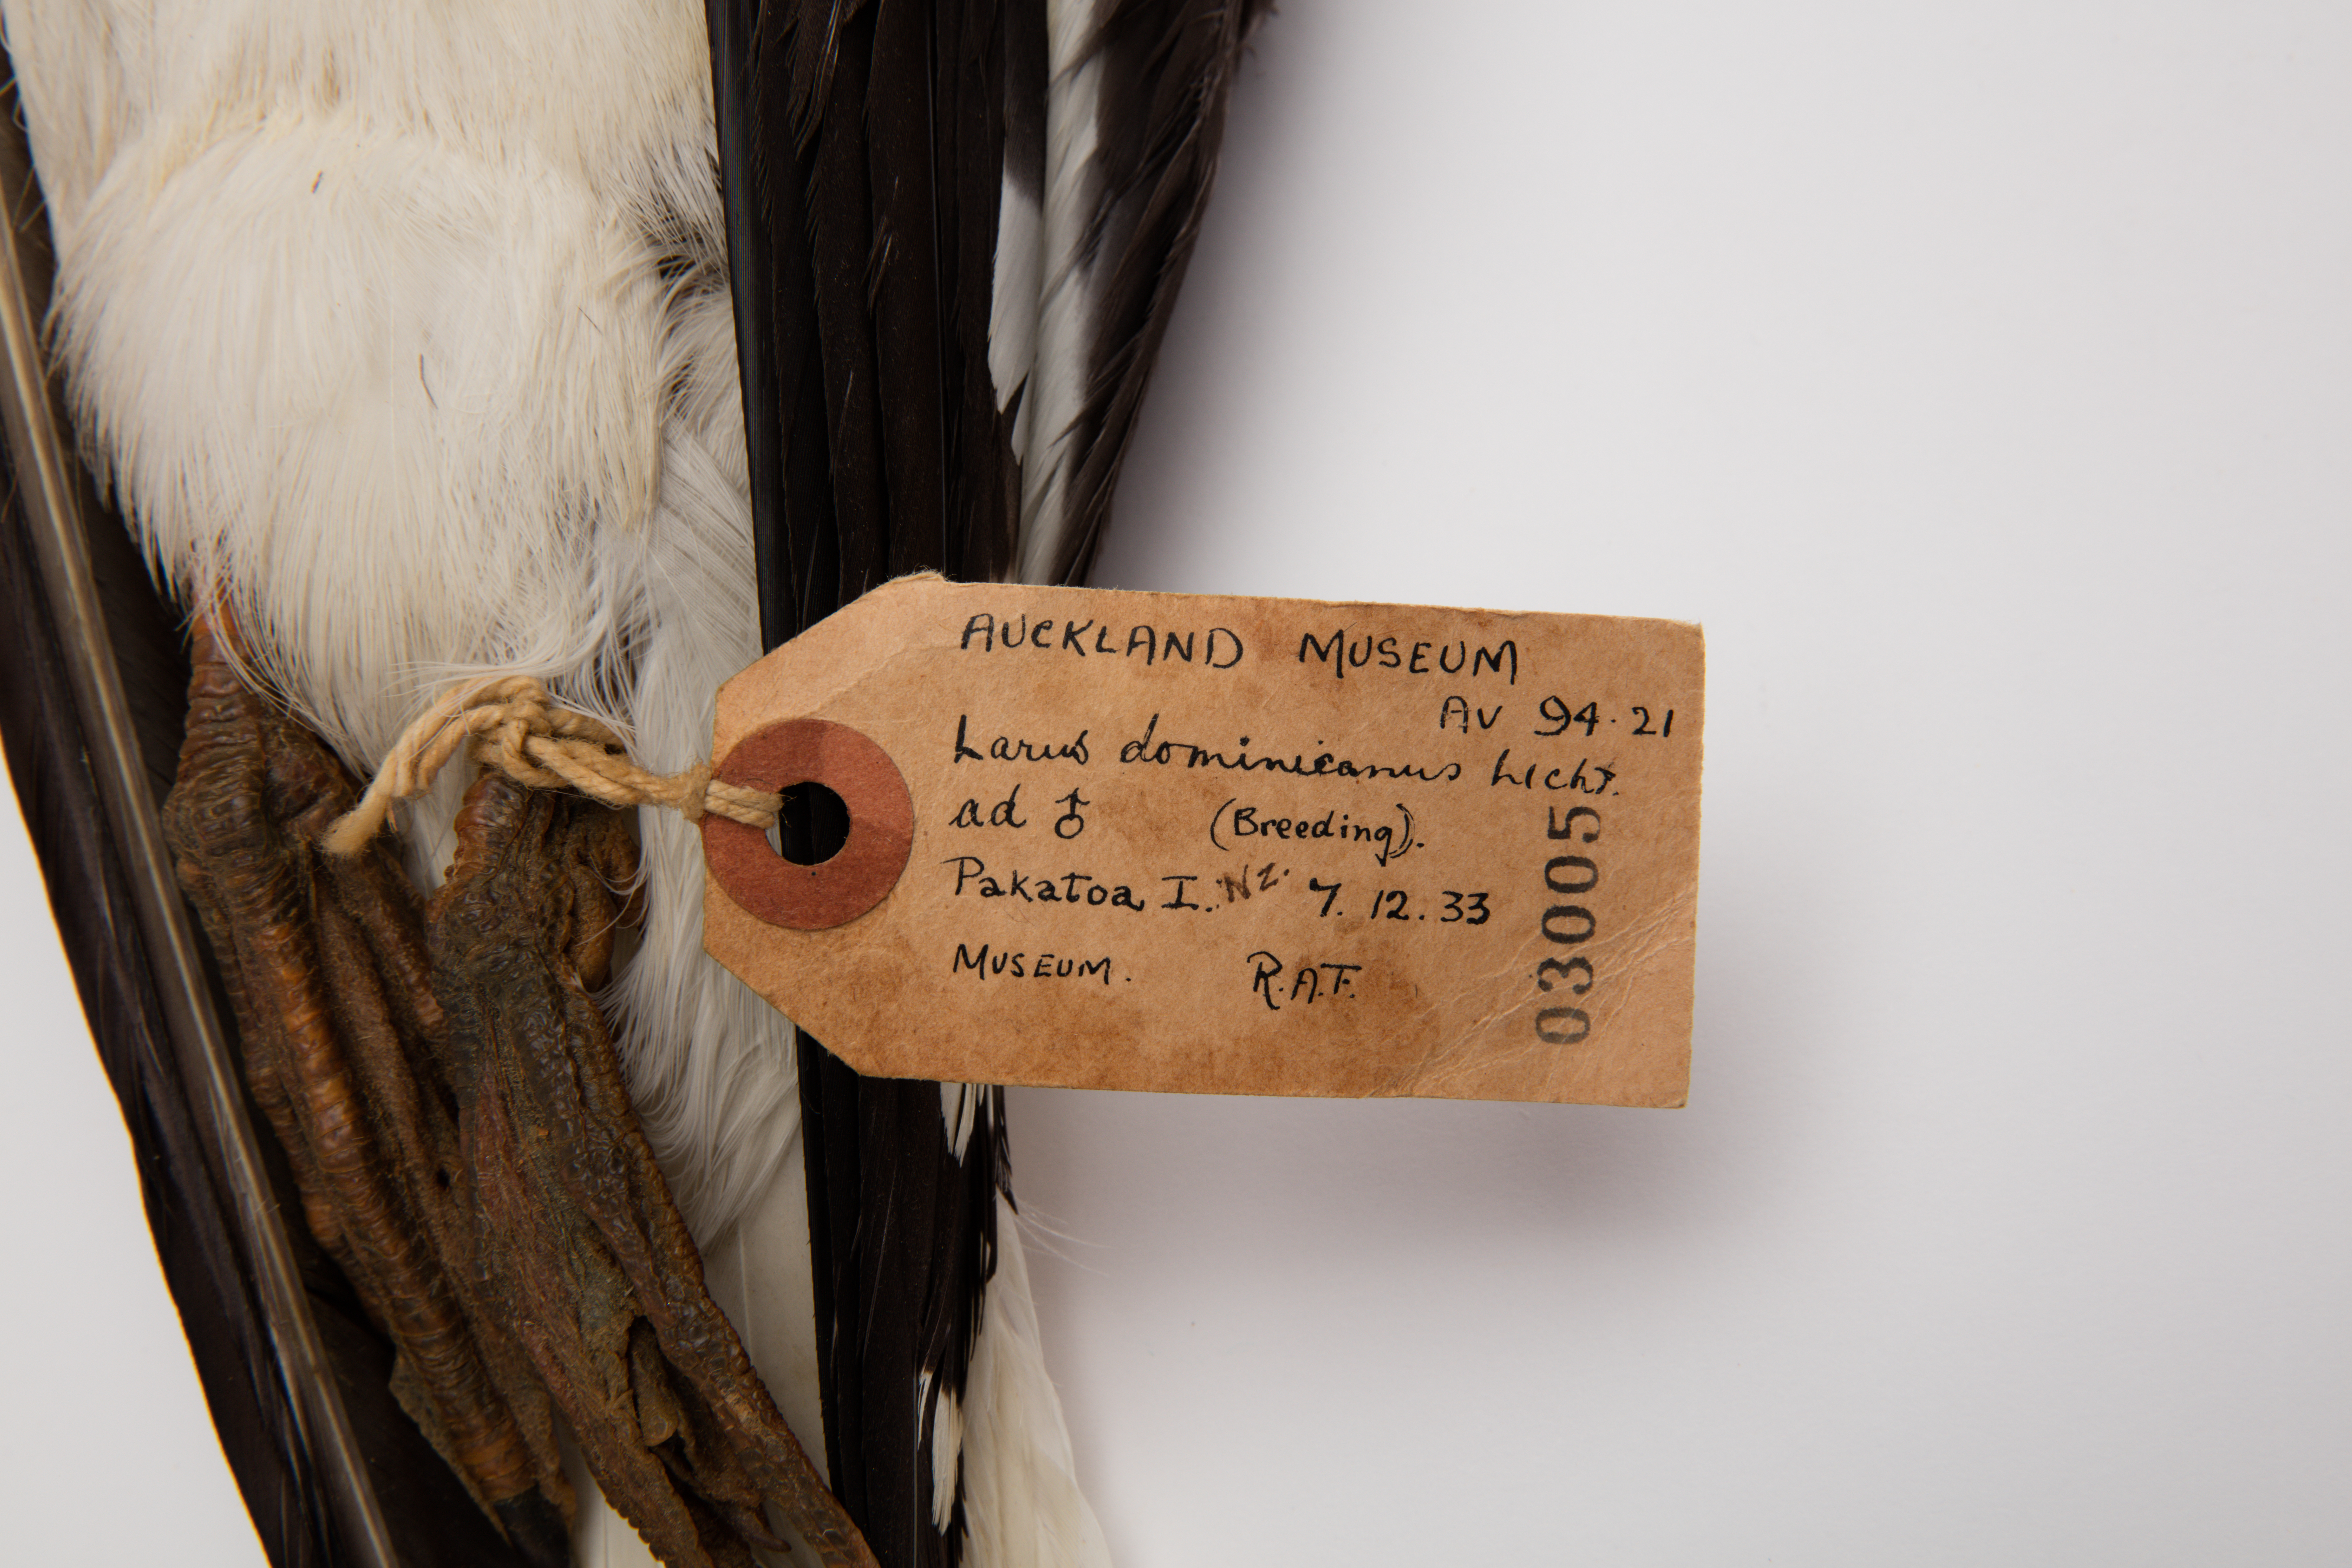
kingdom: Animalia
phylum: Chordata
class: Aves
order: Charadriiformes
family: Laridae
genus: Larus
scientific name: Larus dominicanus
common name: Kelp gull
